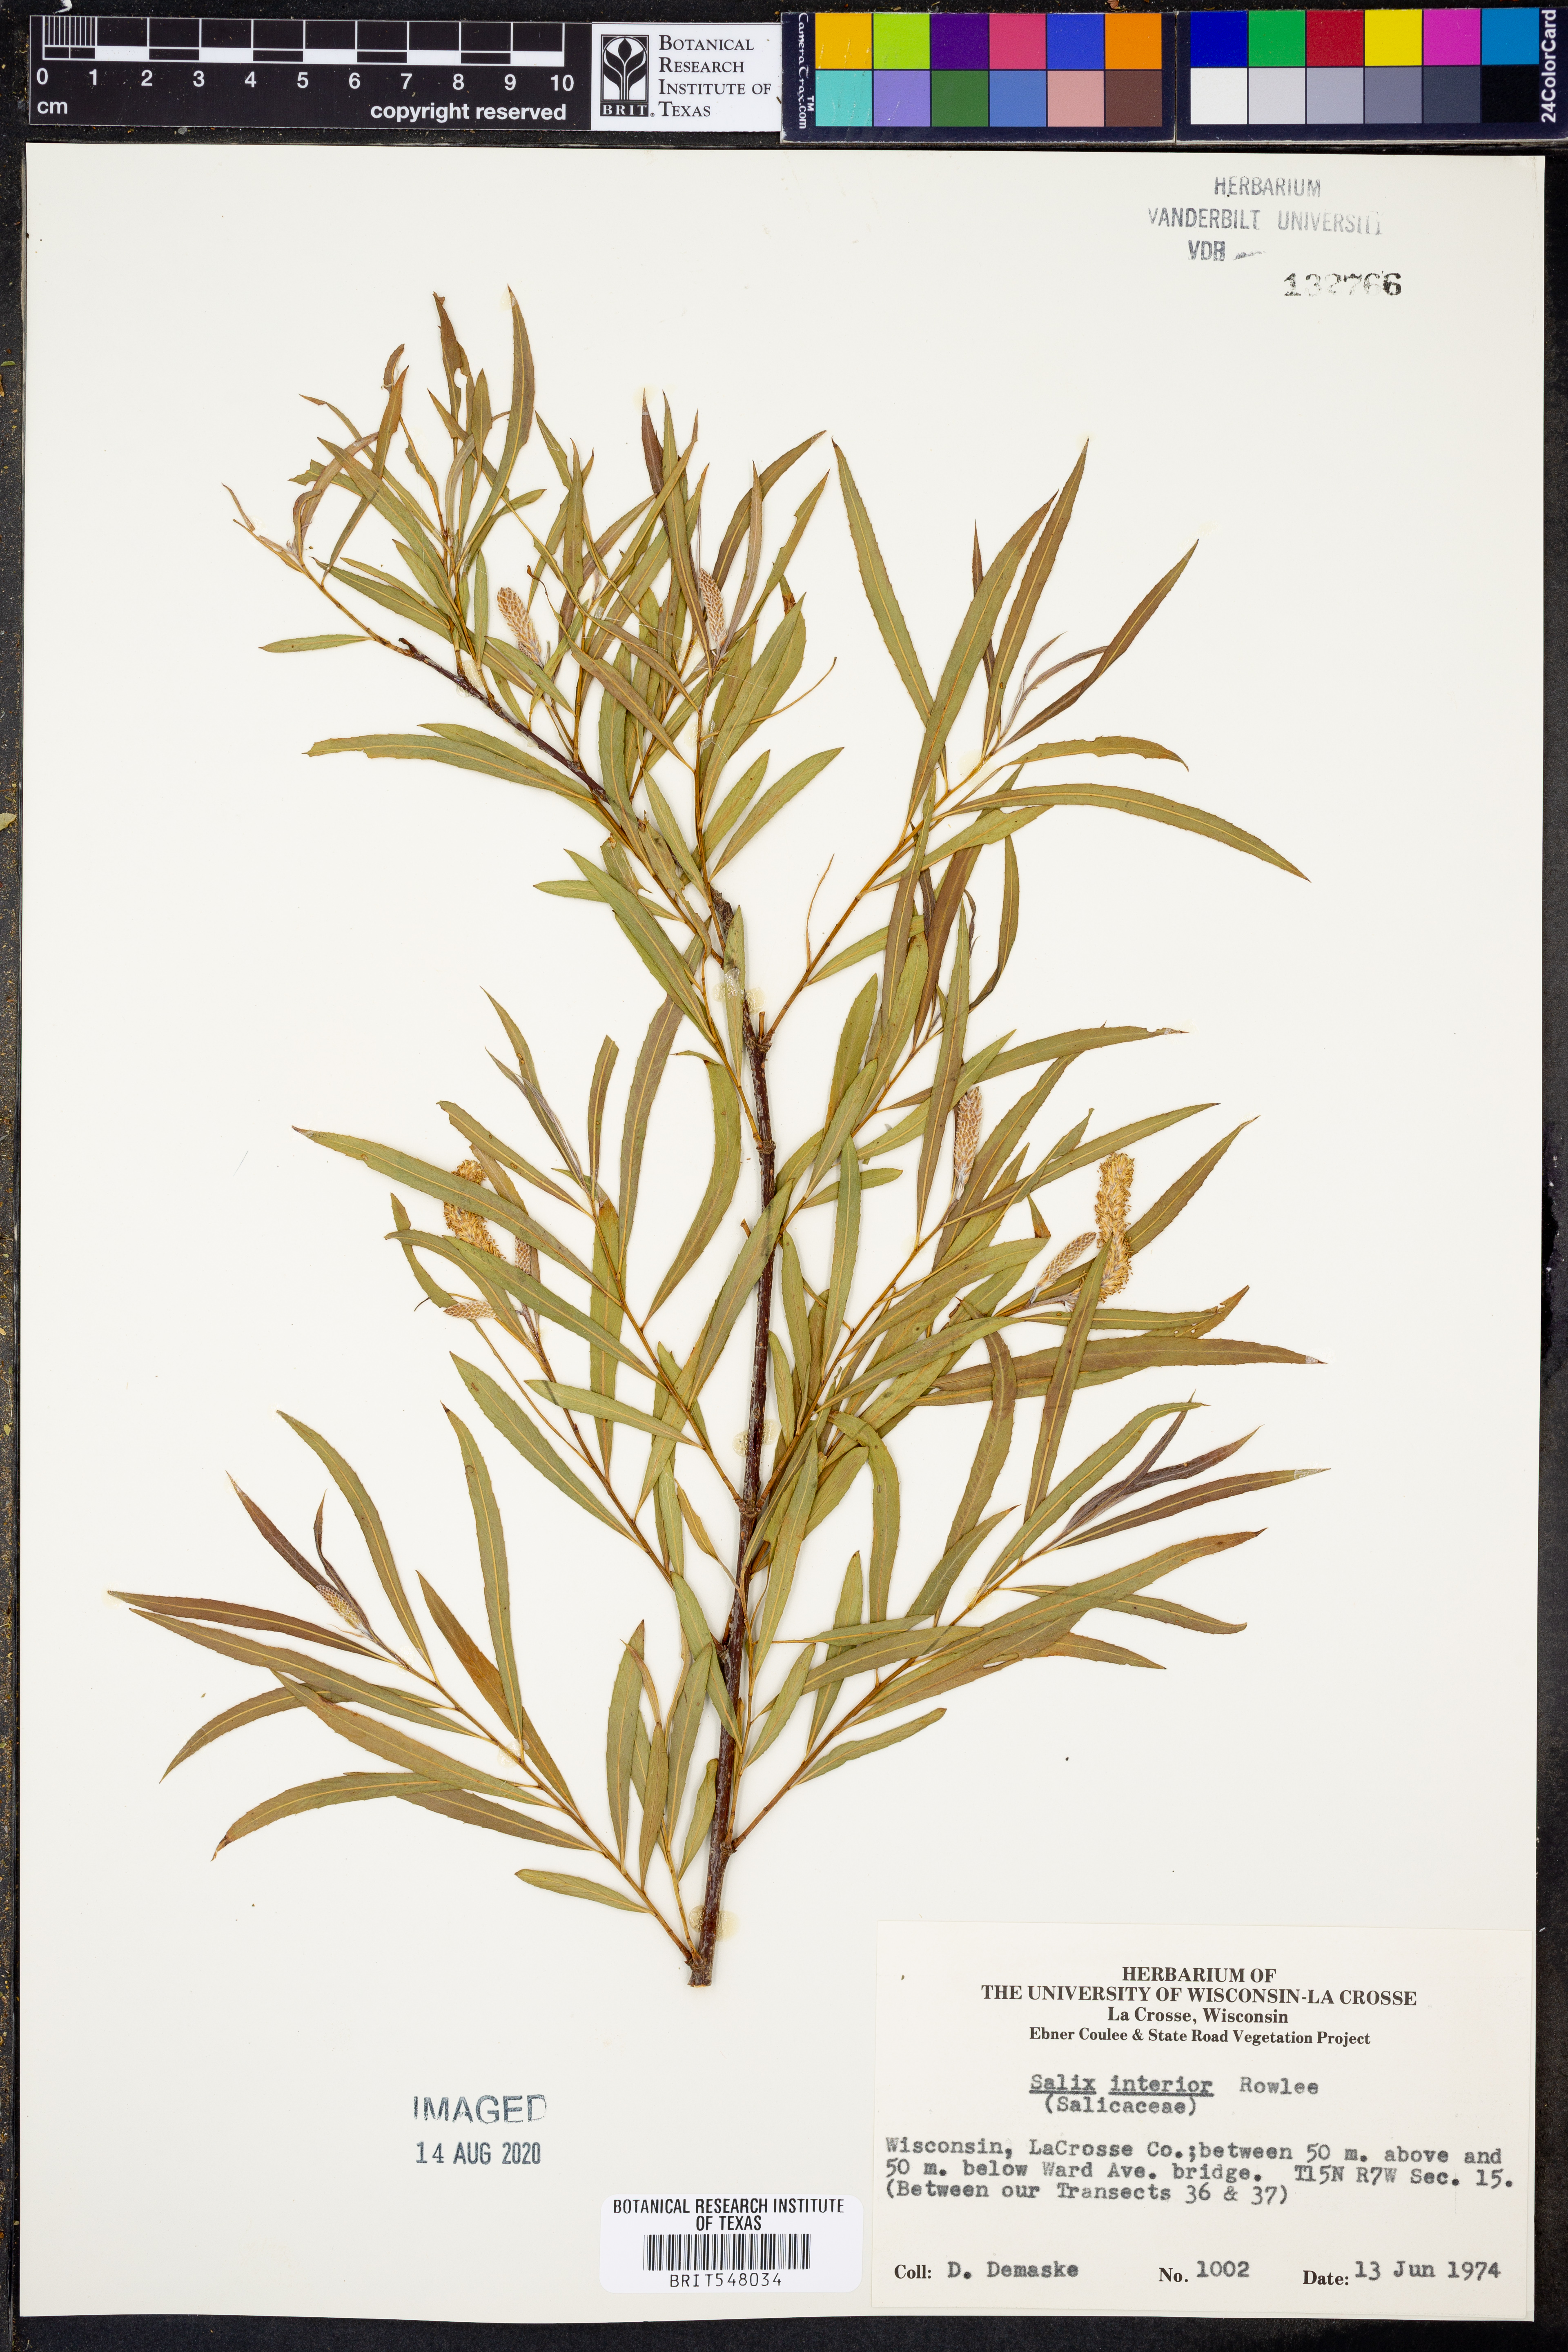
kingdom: Plantae
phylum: Tracheophyta
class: Magnoliopsida
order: Malpighiales
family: Salicaceae
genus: Salix
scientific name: Salix interior
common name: Sandbar willow
